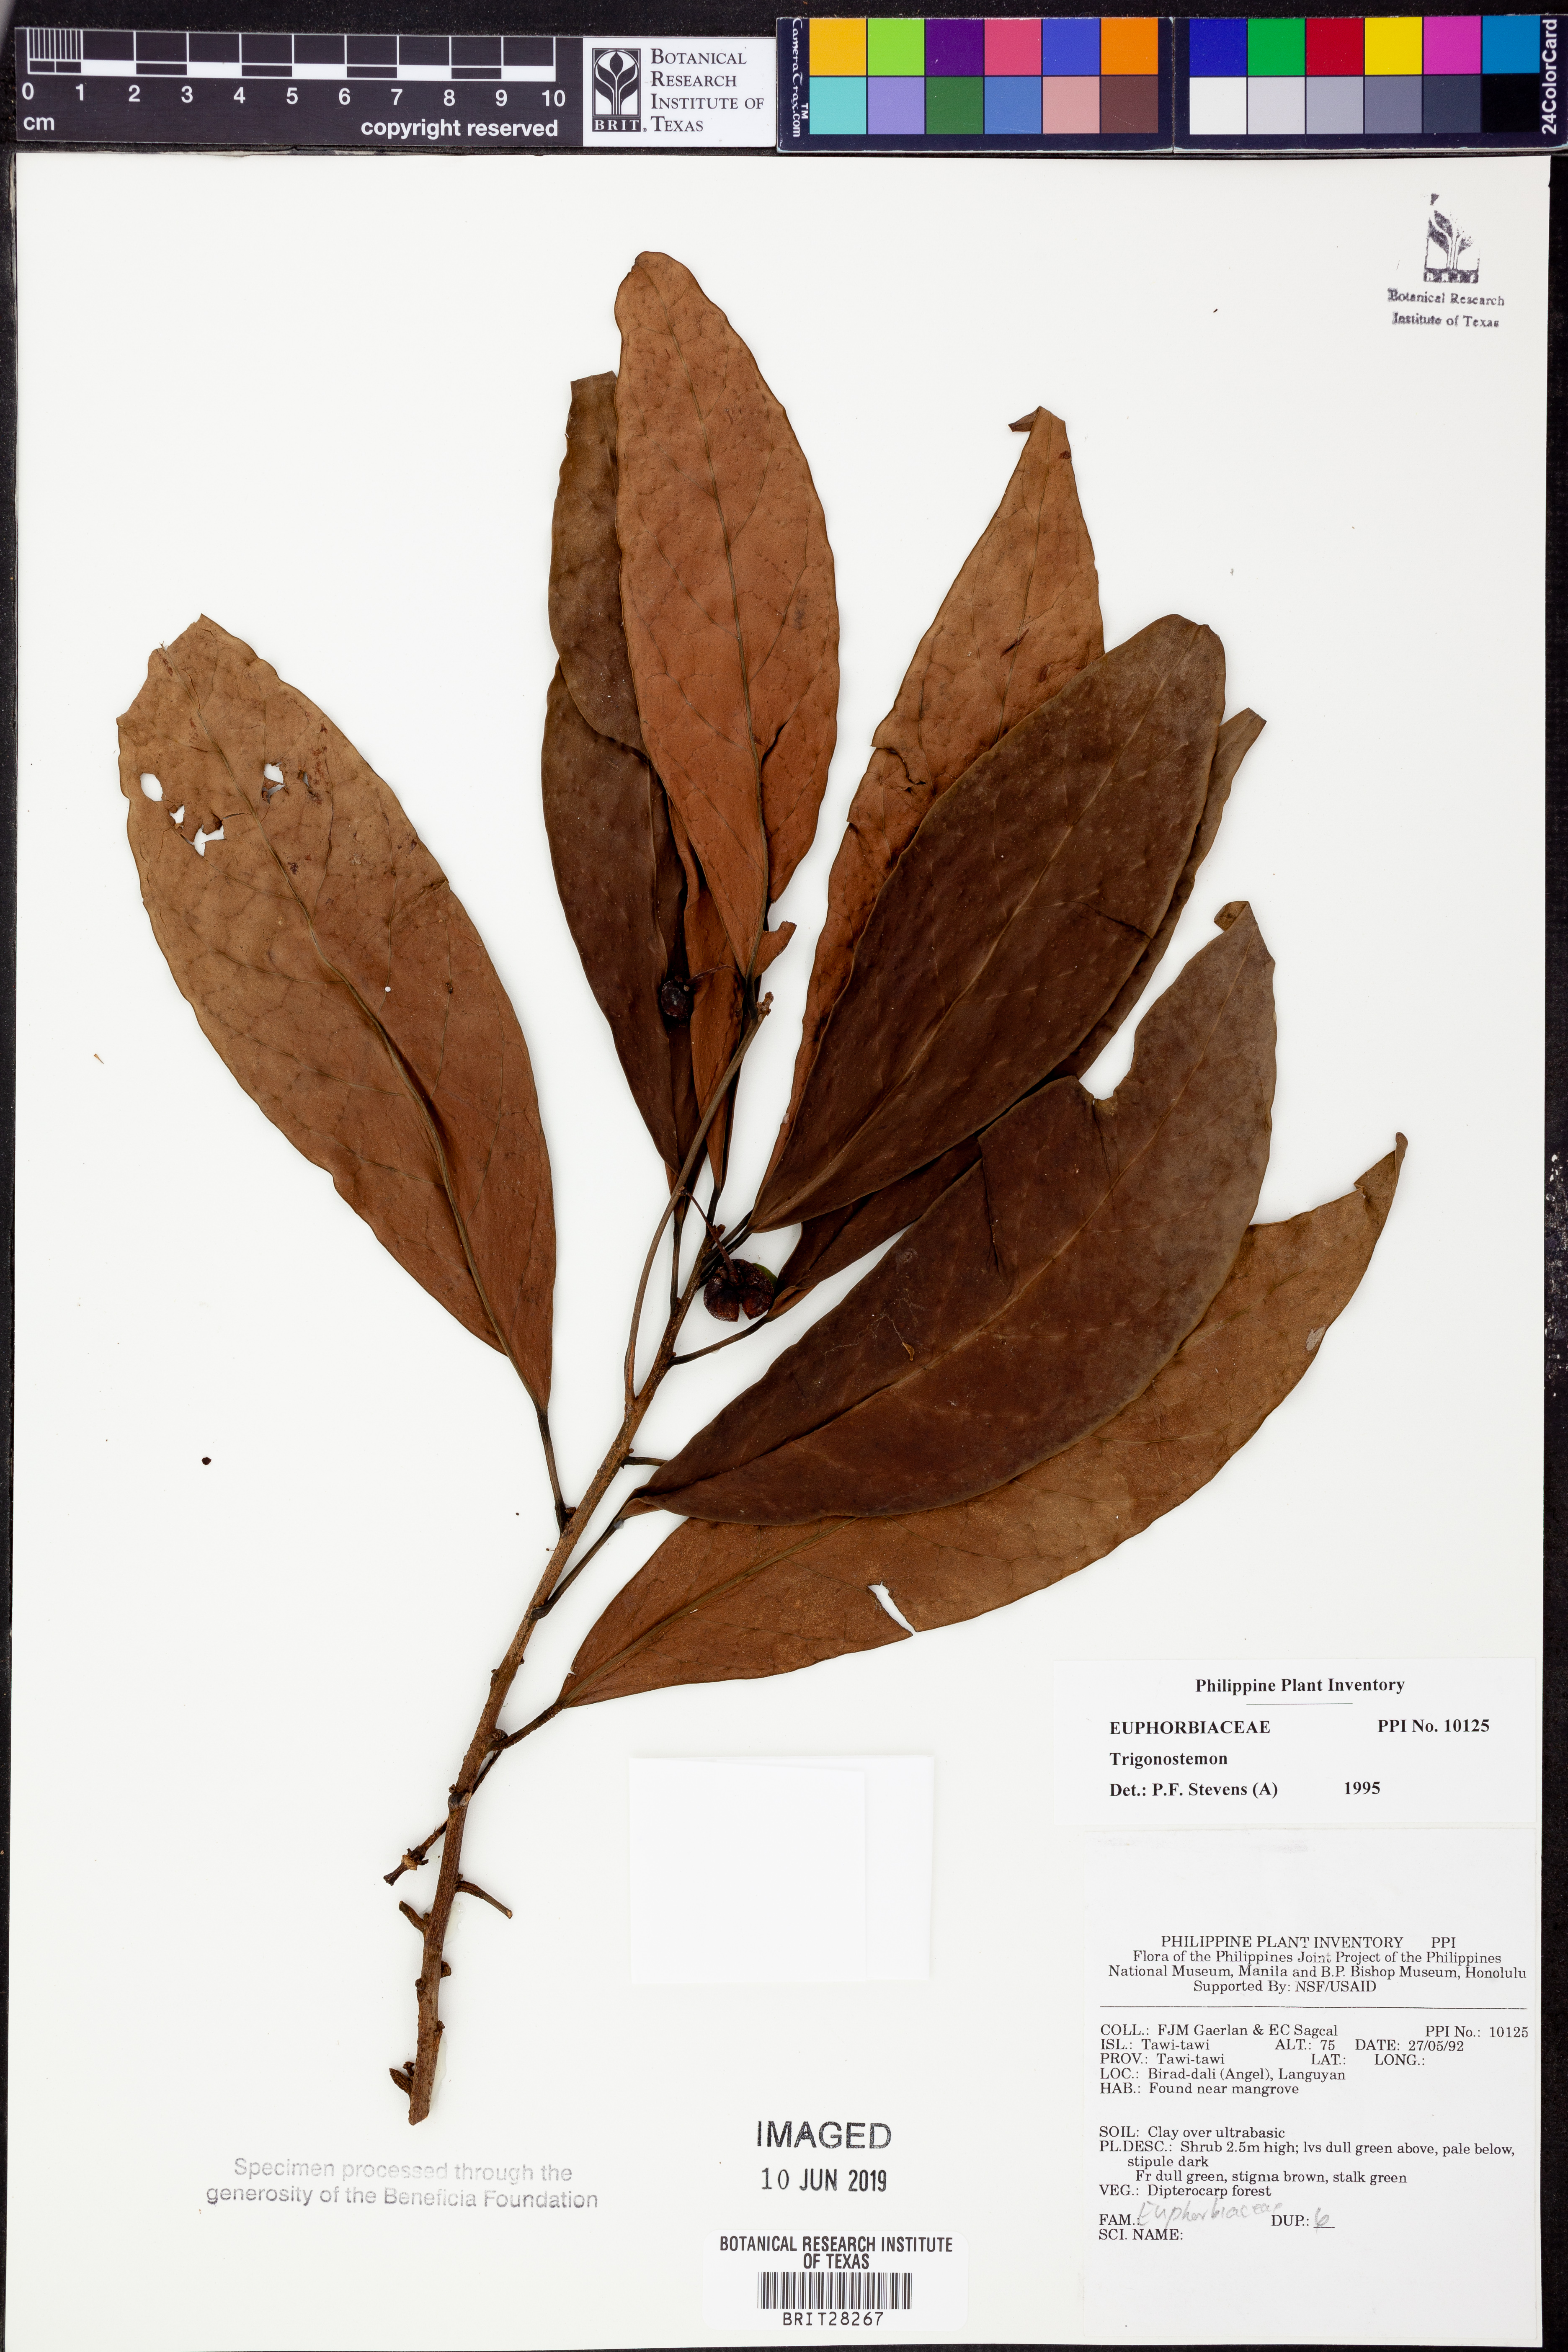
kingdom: Plantae
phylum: Tracheophyta
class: Magnoliopsida
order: Malpighiales
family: Euphorbiaceae
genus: Trigonostemon
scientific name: Trigonostemon
